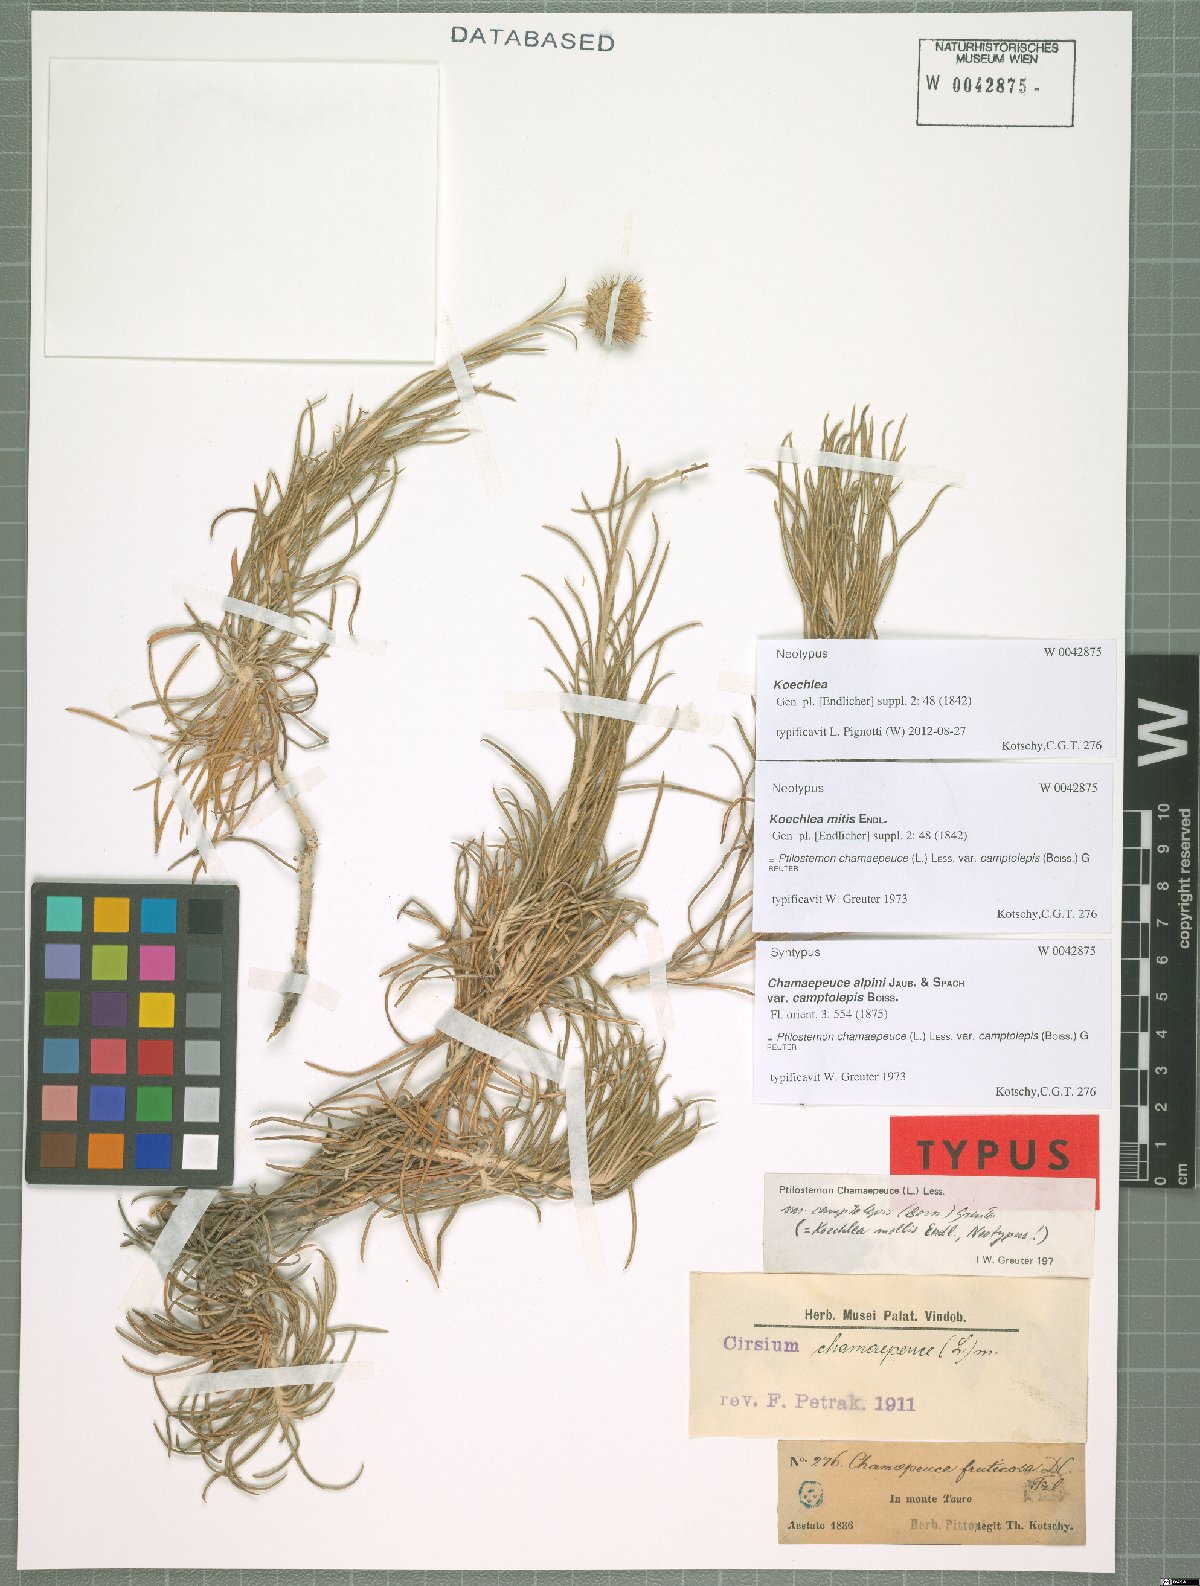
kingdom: Plantae
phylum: Tracheophyta
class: Magnoliopsida
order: Asterales
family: Asteraceae
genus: Ptilostemon
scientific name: Ptilostemon chamaepeuce
